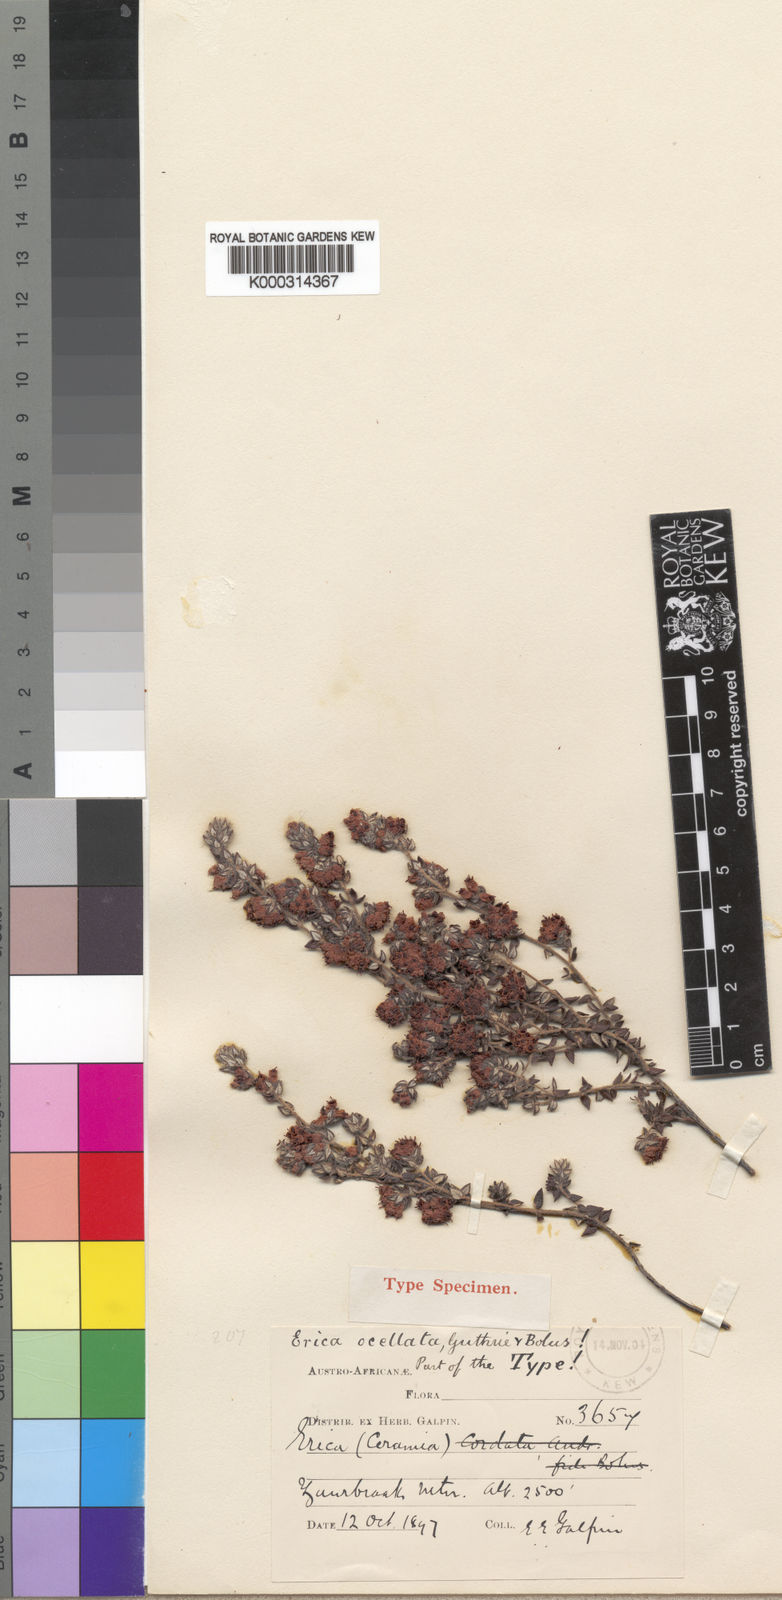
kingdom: Plantae
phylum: Tracheophyta
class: Magnoliopsida
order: Ericales
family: Ericaceae
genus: Erica
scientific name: Erica ocellata
